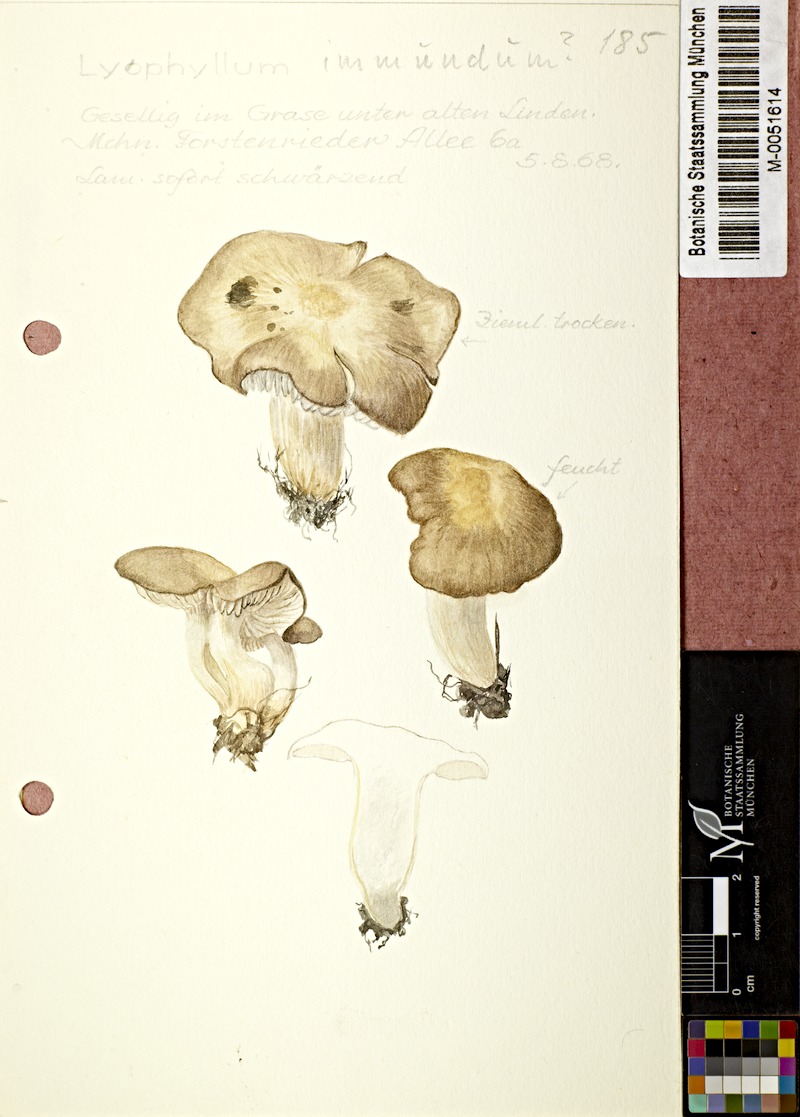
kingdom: Fungi
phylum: Basidiomycota
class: Agaricomycetes
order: Agaricales
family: Lyophyllaceae
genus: Lyophyllum
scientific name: Lyophyllum immundum
